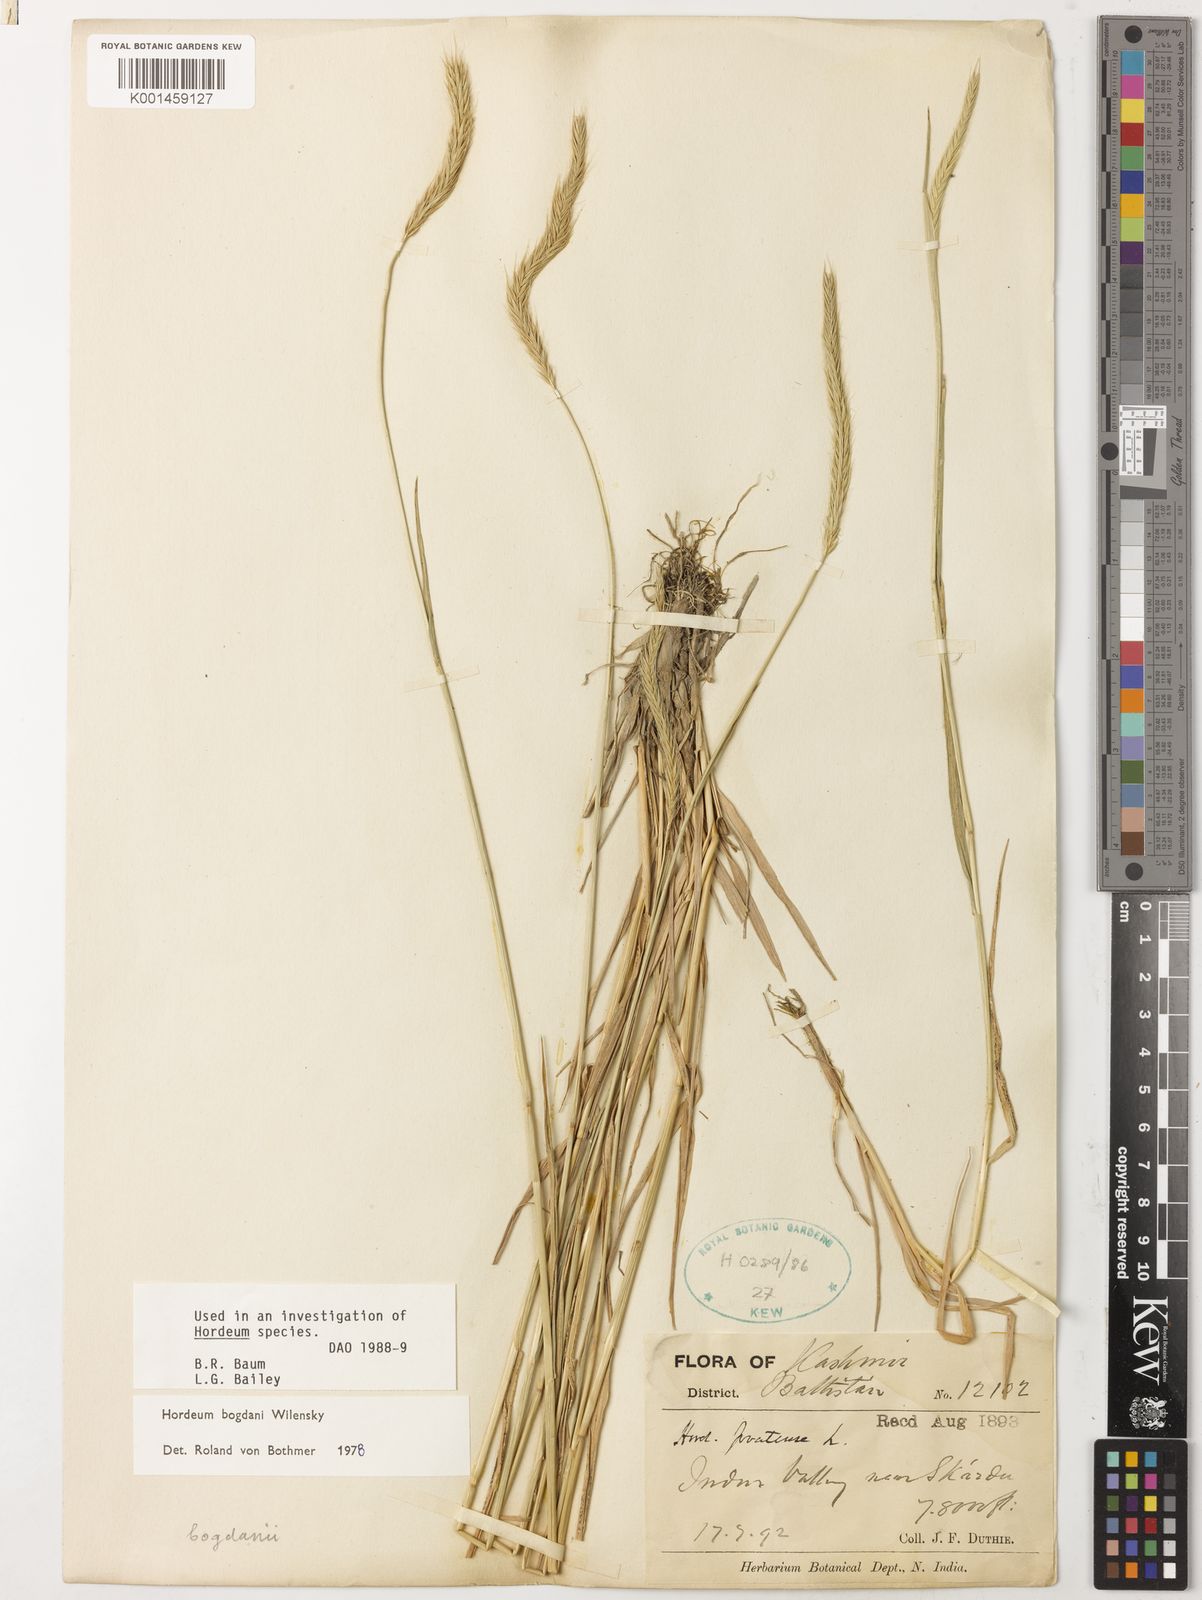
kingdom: Plantae
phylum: Tracheophyta
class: Liliopsida
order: Poales
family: Poaceae
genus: Hordeum
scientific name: Hordeum bogdanii
